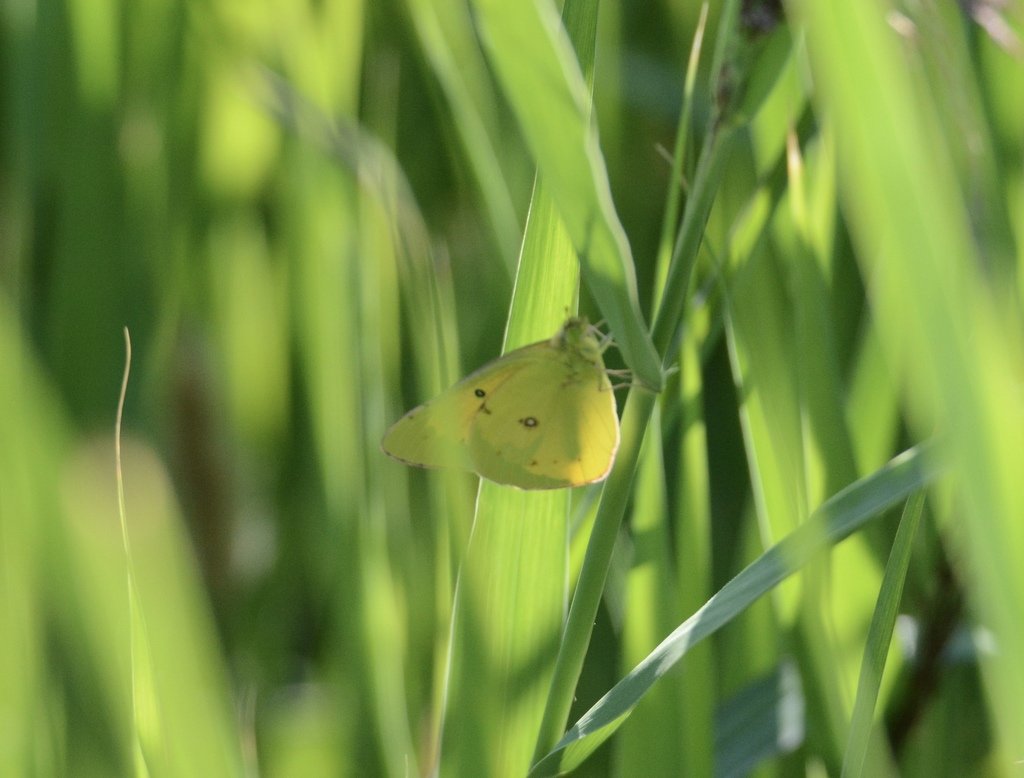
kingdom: Animalia
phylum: Arthropoda
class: Insecta
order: Lepidoptera
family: Pieridae
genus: Colias
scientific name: Colias eurytheme
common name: Orange Sulphur
